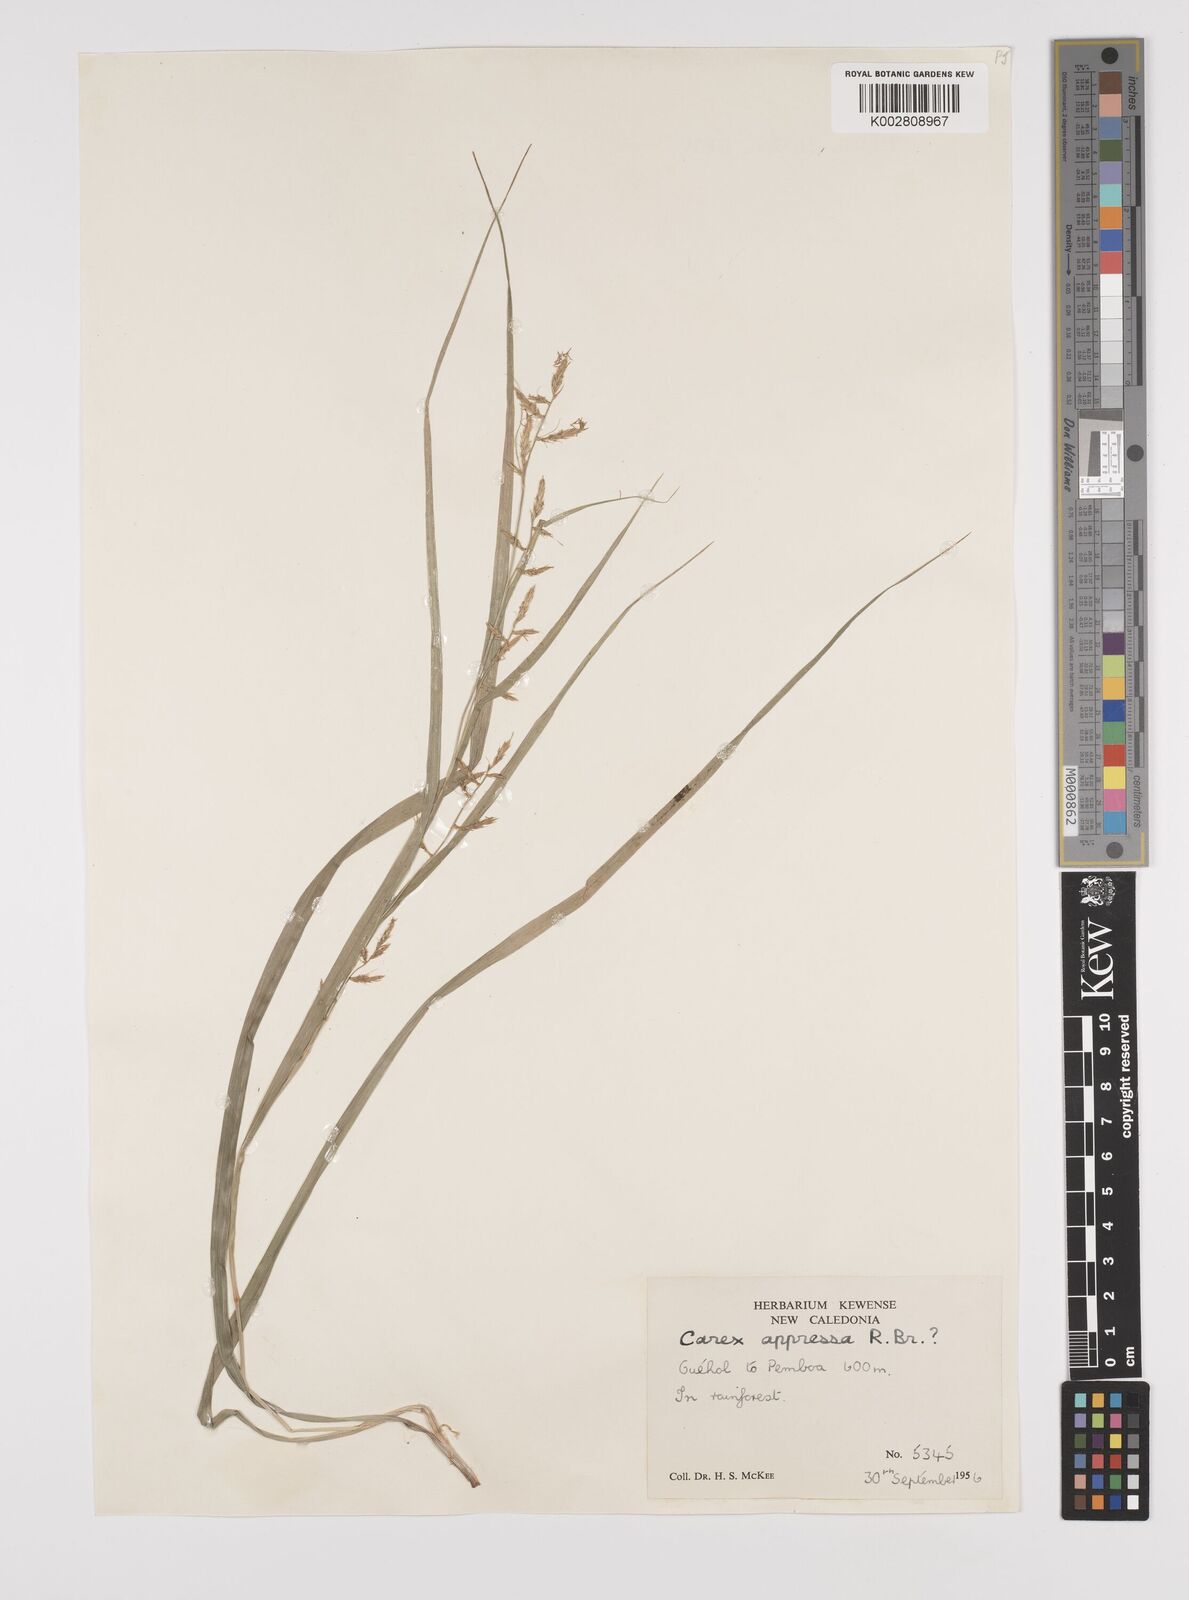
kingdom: Plantae
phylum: Tracheophyta
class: Liliopsida
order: Poales
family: Cyperaceae
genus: Carex
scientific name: Carex appressa
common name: Tussock sedge
